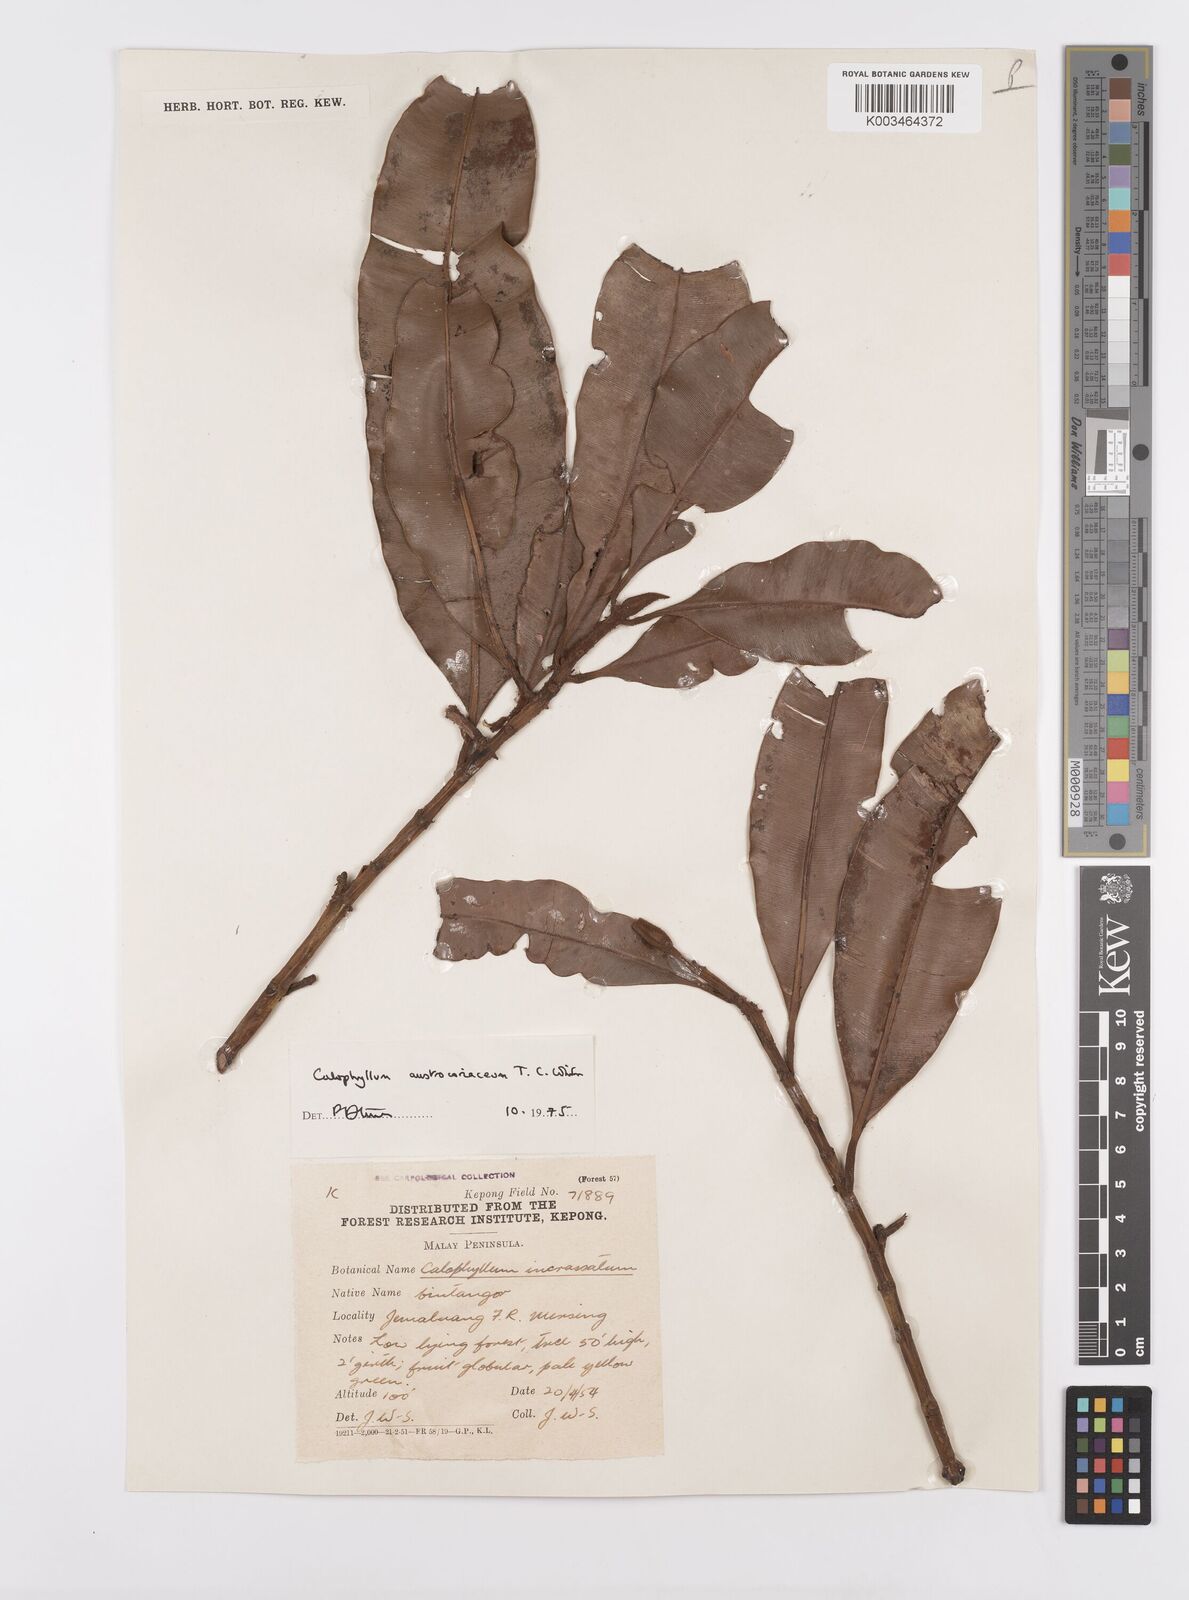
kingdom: Plantae
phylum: Tracheophyta
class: Magnoliopsida
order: Malpighiales
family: Calophyllaceae
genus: Calophyllum
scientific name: Calophyllum lanigerum
